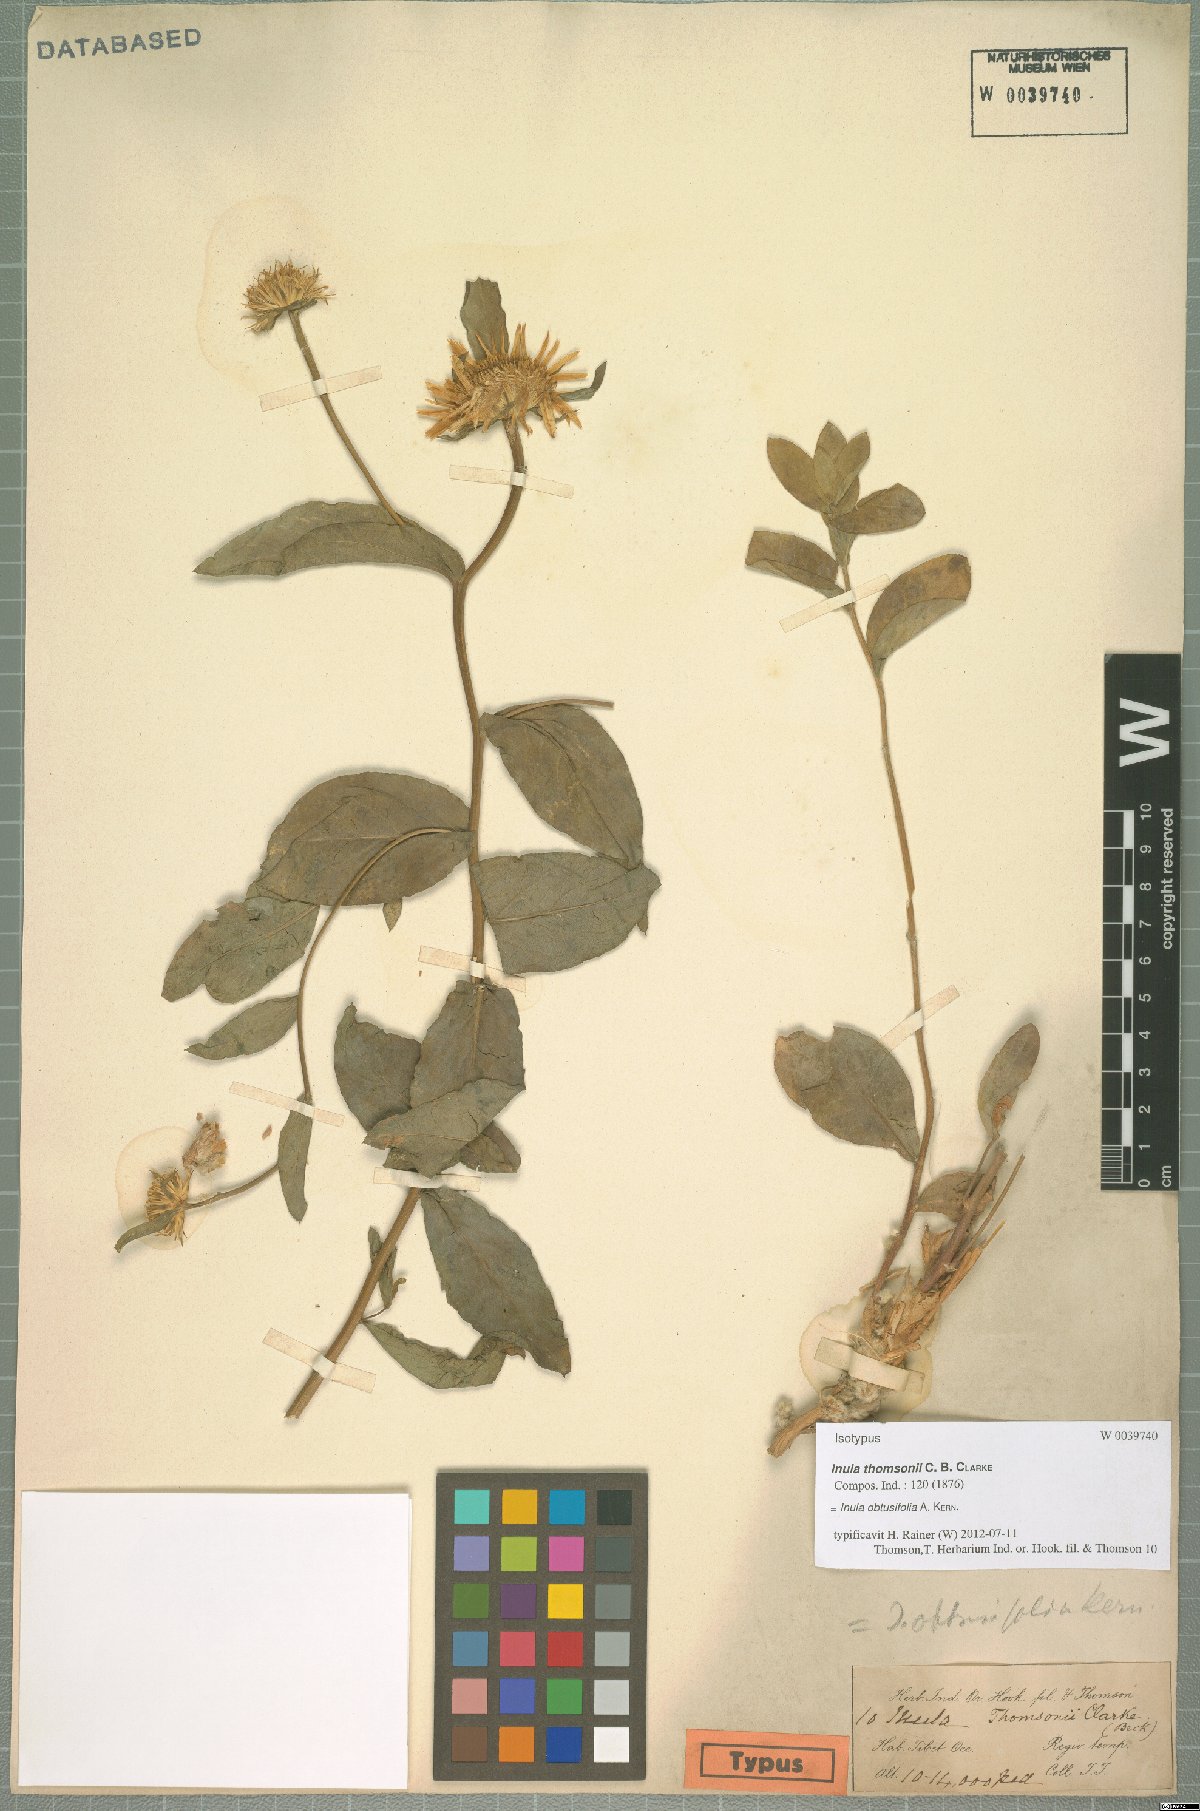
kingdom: Plantae
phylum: Tracheophyta
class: Magnoliopsida
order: Asterales
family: Asteraceae
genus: Inula
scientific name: Inula obtusifolia
